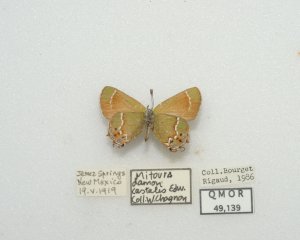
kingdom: Animalia
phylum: Arthropoda
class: Insecta
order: Lepidoptera
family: Lycaenidae
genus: Mitoura
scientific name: Mitoura gryneus
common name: Juniper Hairstreak
